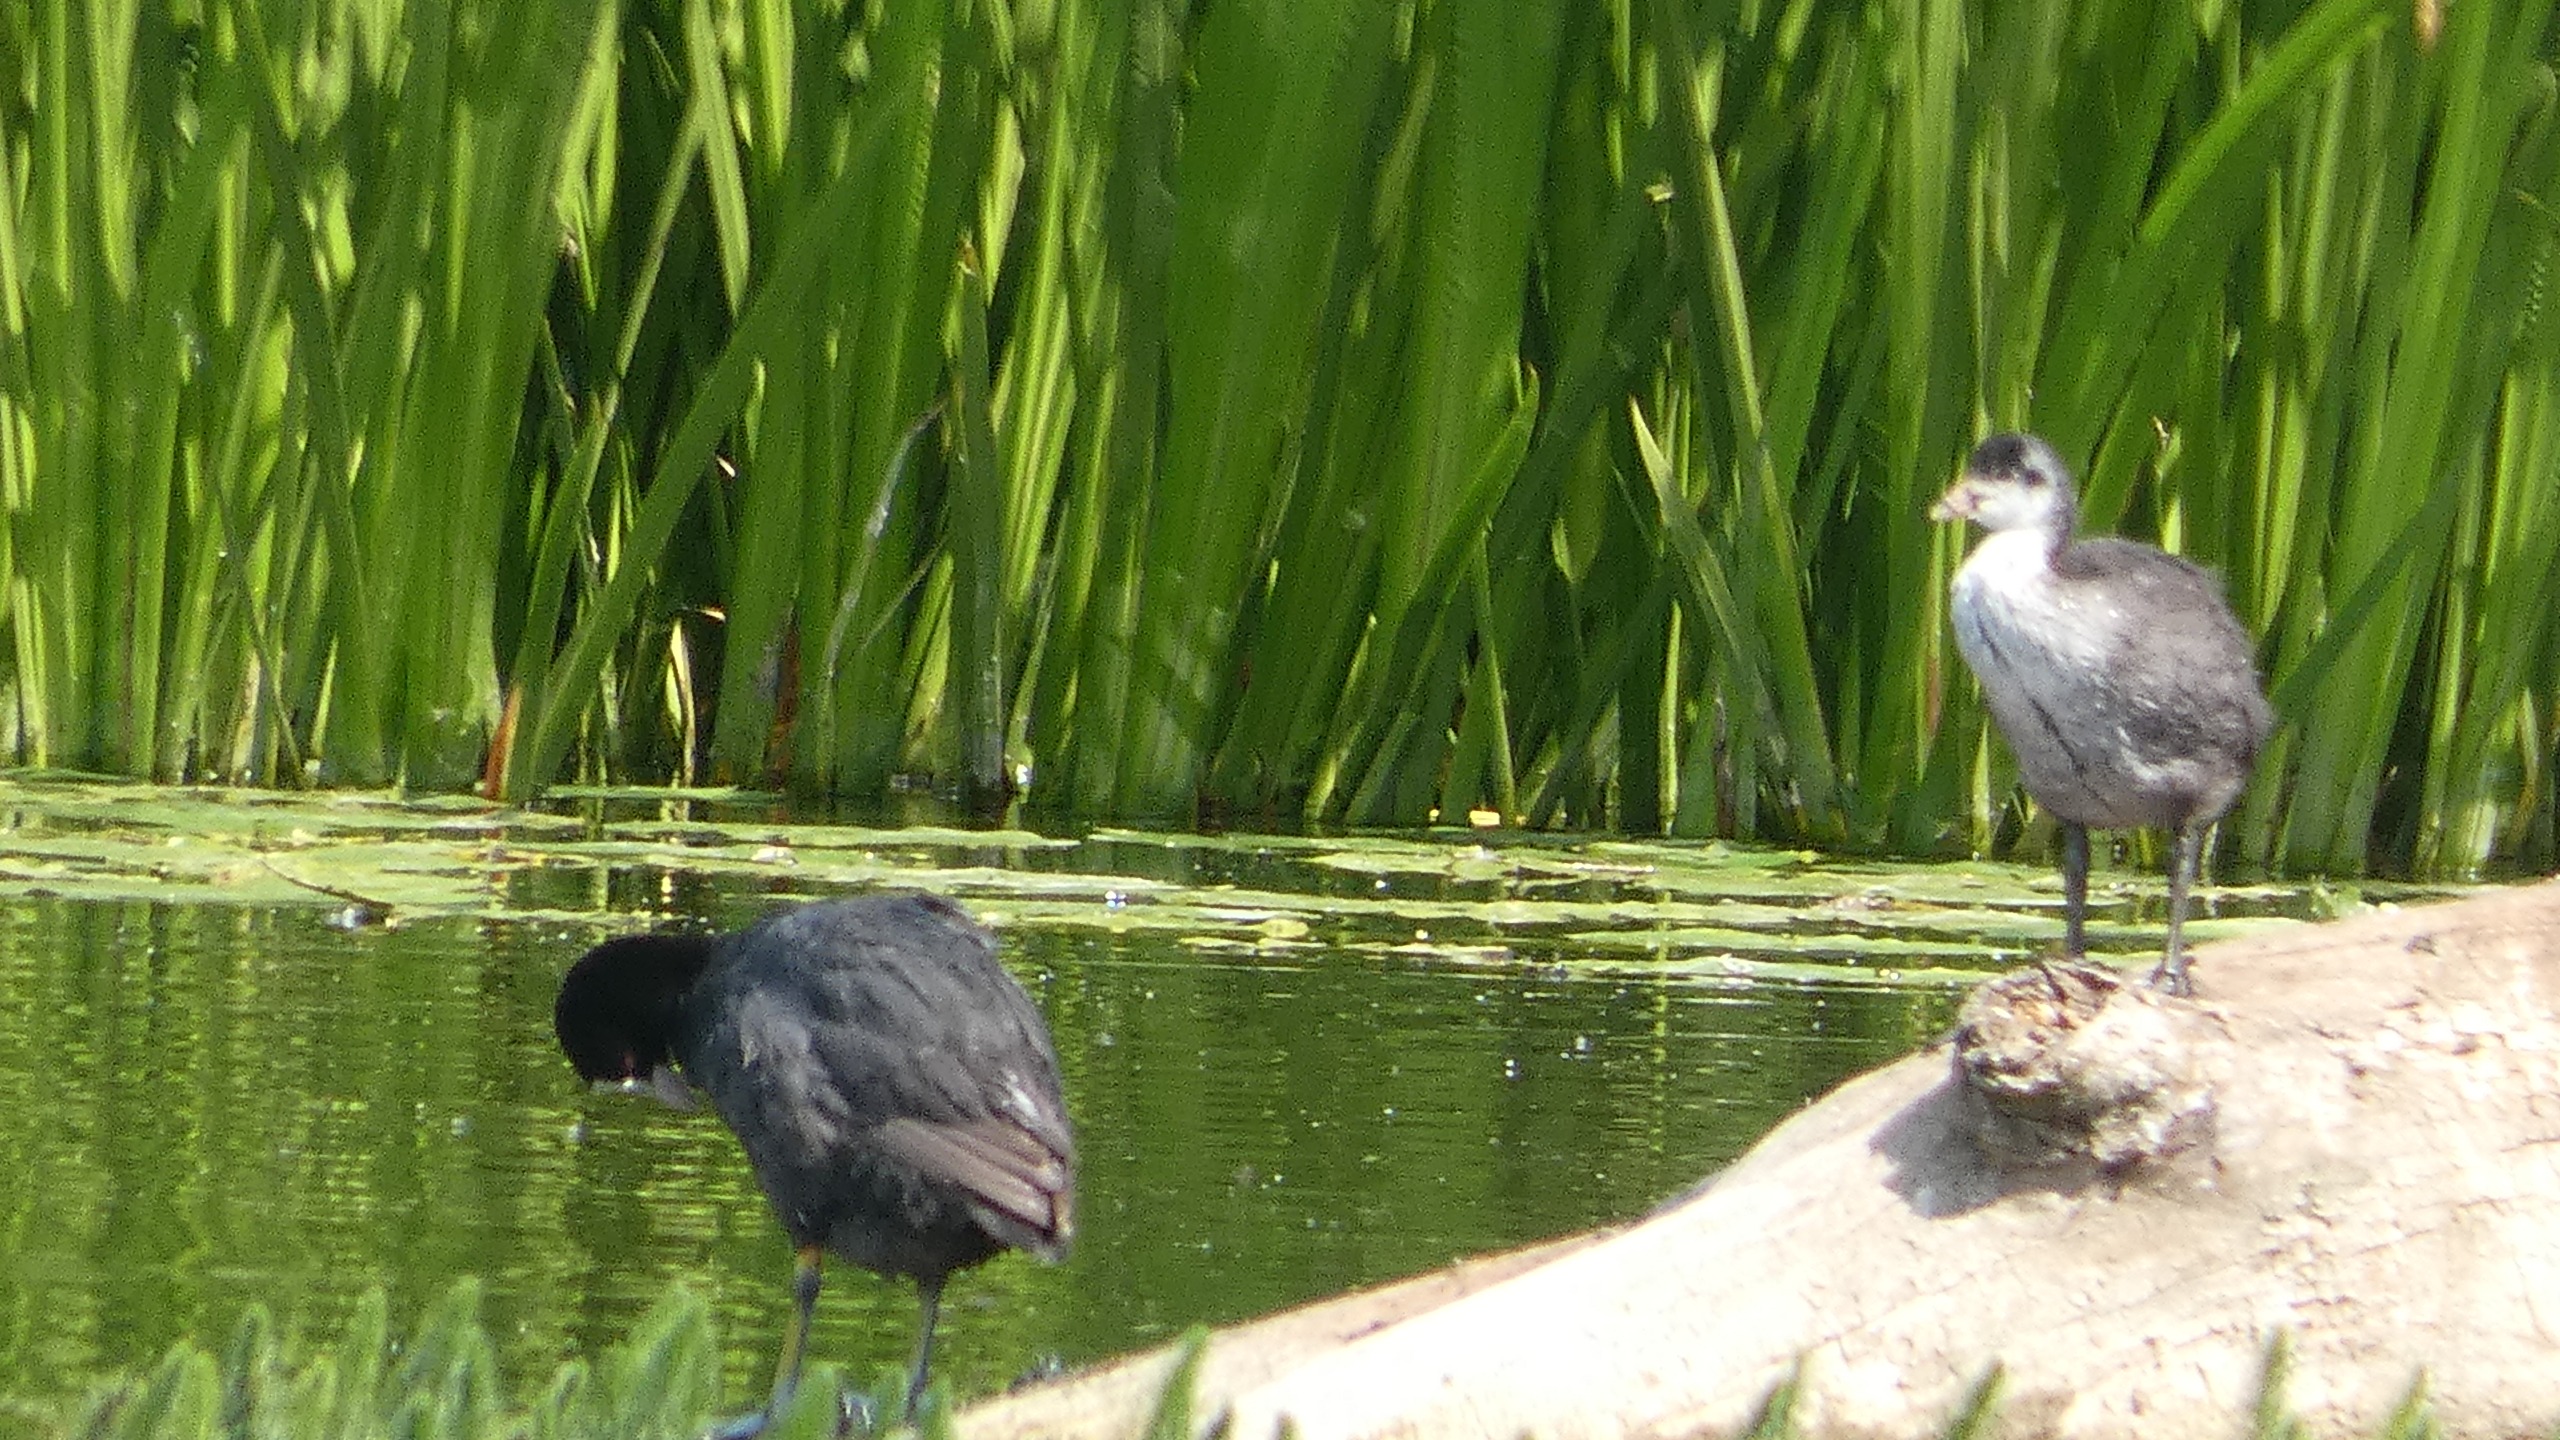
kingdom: Animalia
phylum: Chordata
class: Aves
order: Gruiformes
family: Rallidae
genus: Fulica
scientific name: Fulica atra
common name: Blishøne
